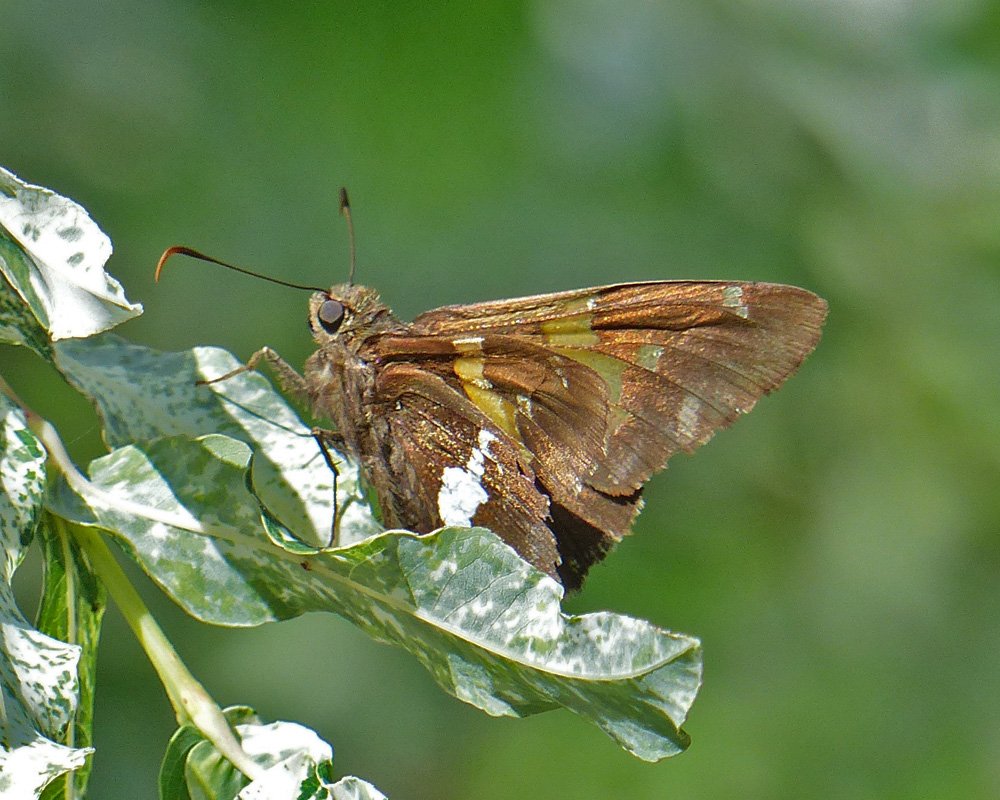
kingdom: Animalia
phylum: Arthropoda
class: Insecta
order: Lepidoptera
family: Hesperiidae
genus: Epargyreus
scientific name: Epargyreus clarus
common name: Silver-spotted Skipper
